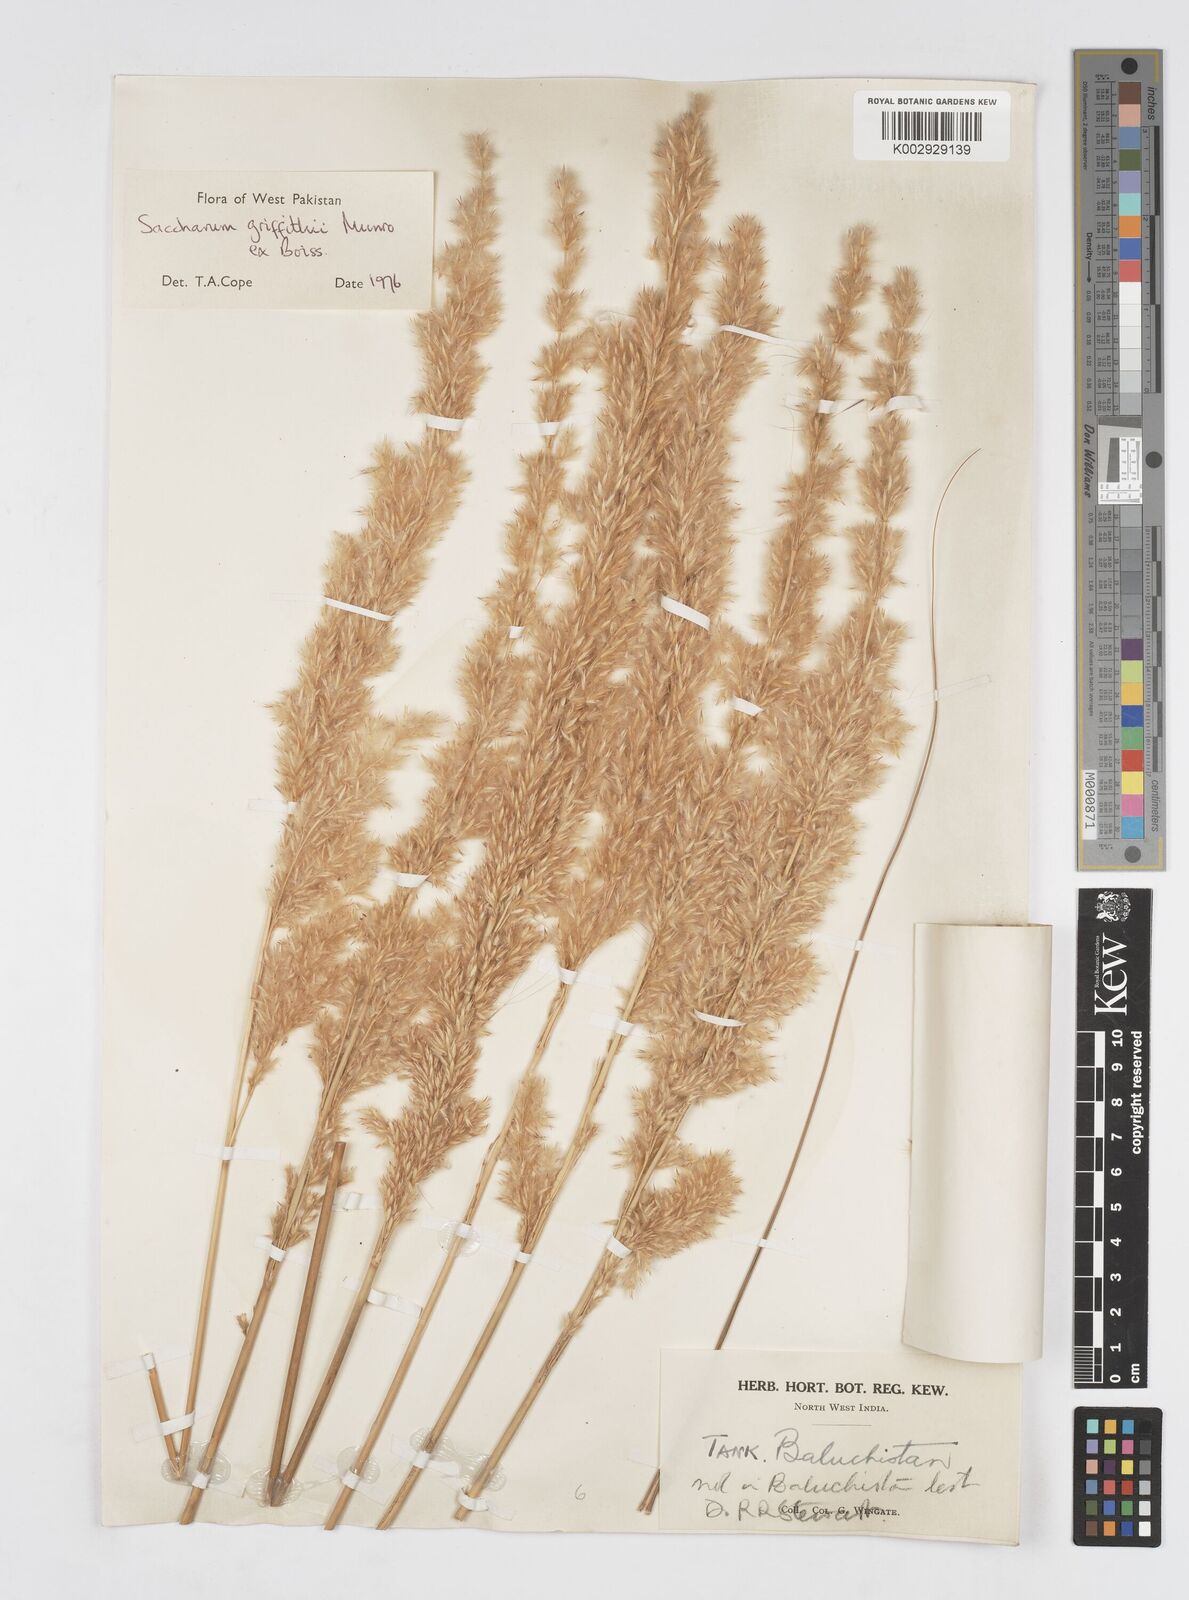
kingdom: Plantae
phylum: Tracheophyta
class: Liliopsida
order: Poales
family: Poaceae
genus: Saccharum
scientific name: Saccharum griffithii
